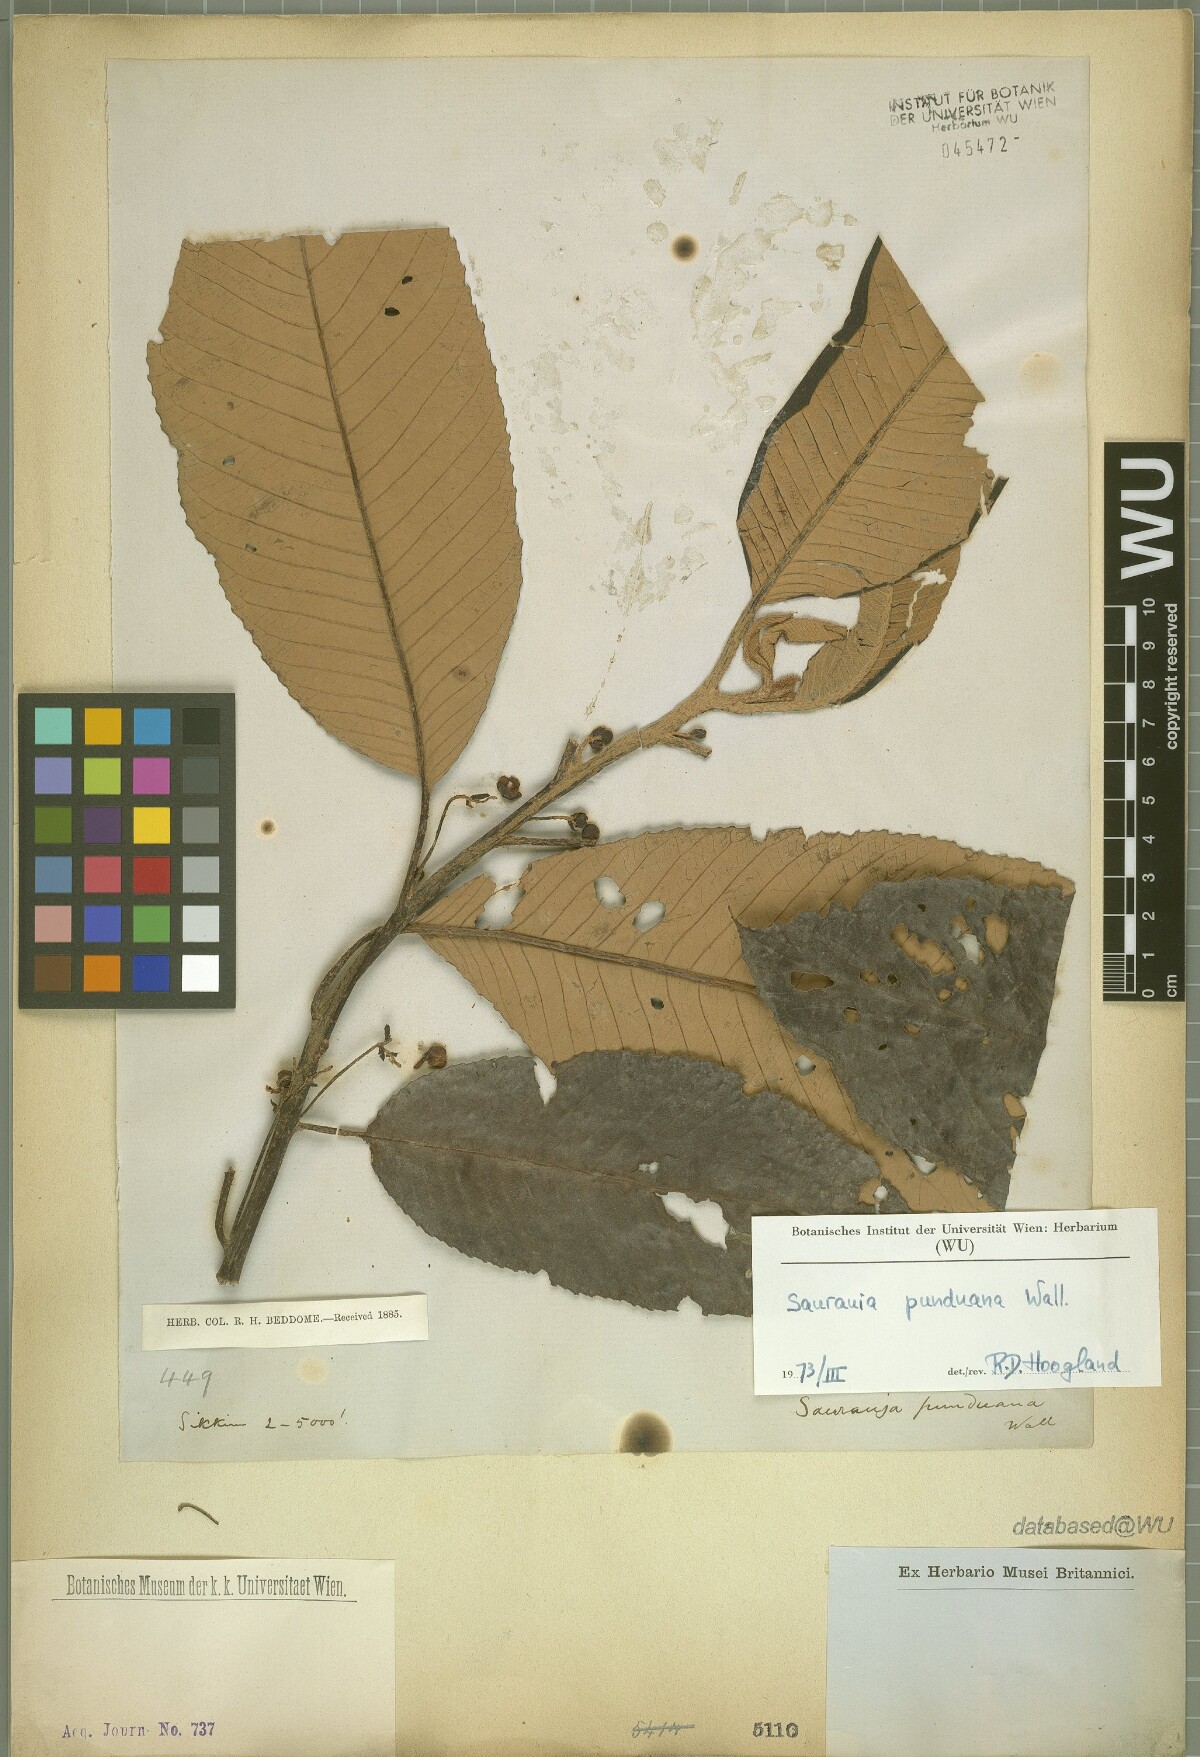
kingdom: Plantae
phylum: Tracheophyta
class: Magnoliopsida
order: Ericales
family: Actinidiaceae
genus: Saurauia
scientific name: Saurauia punduana
